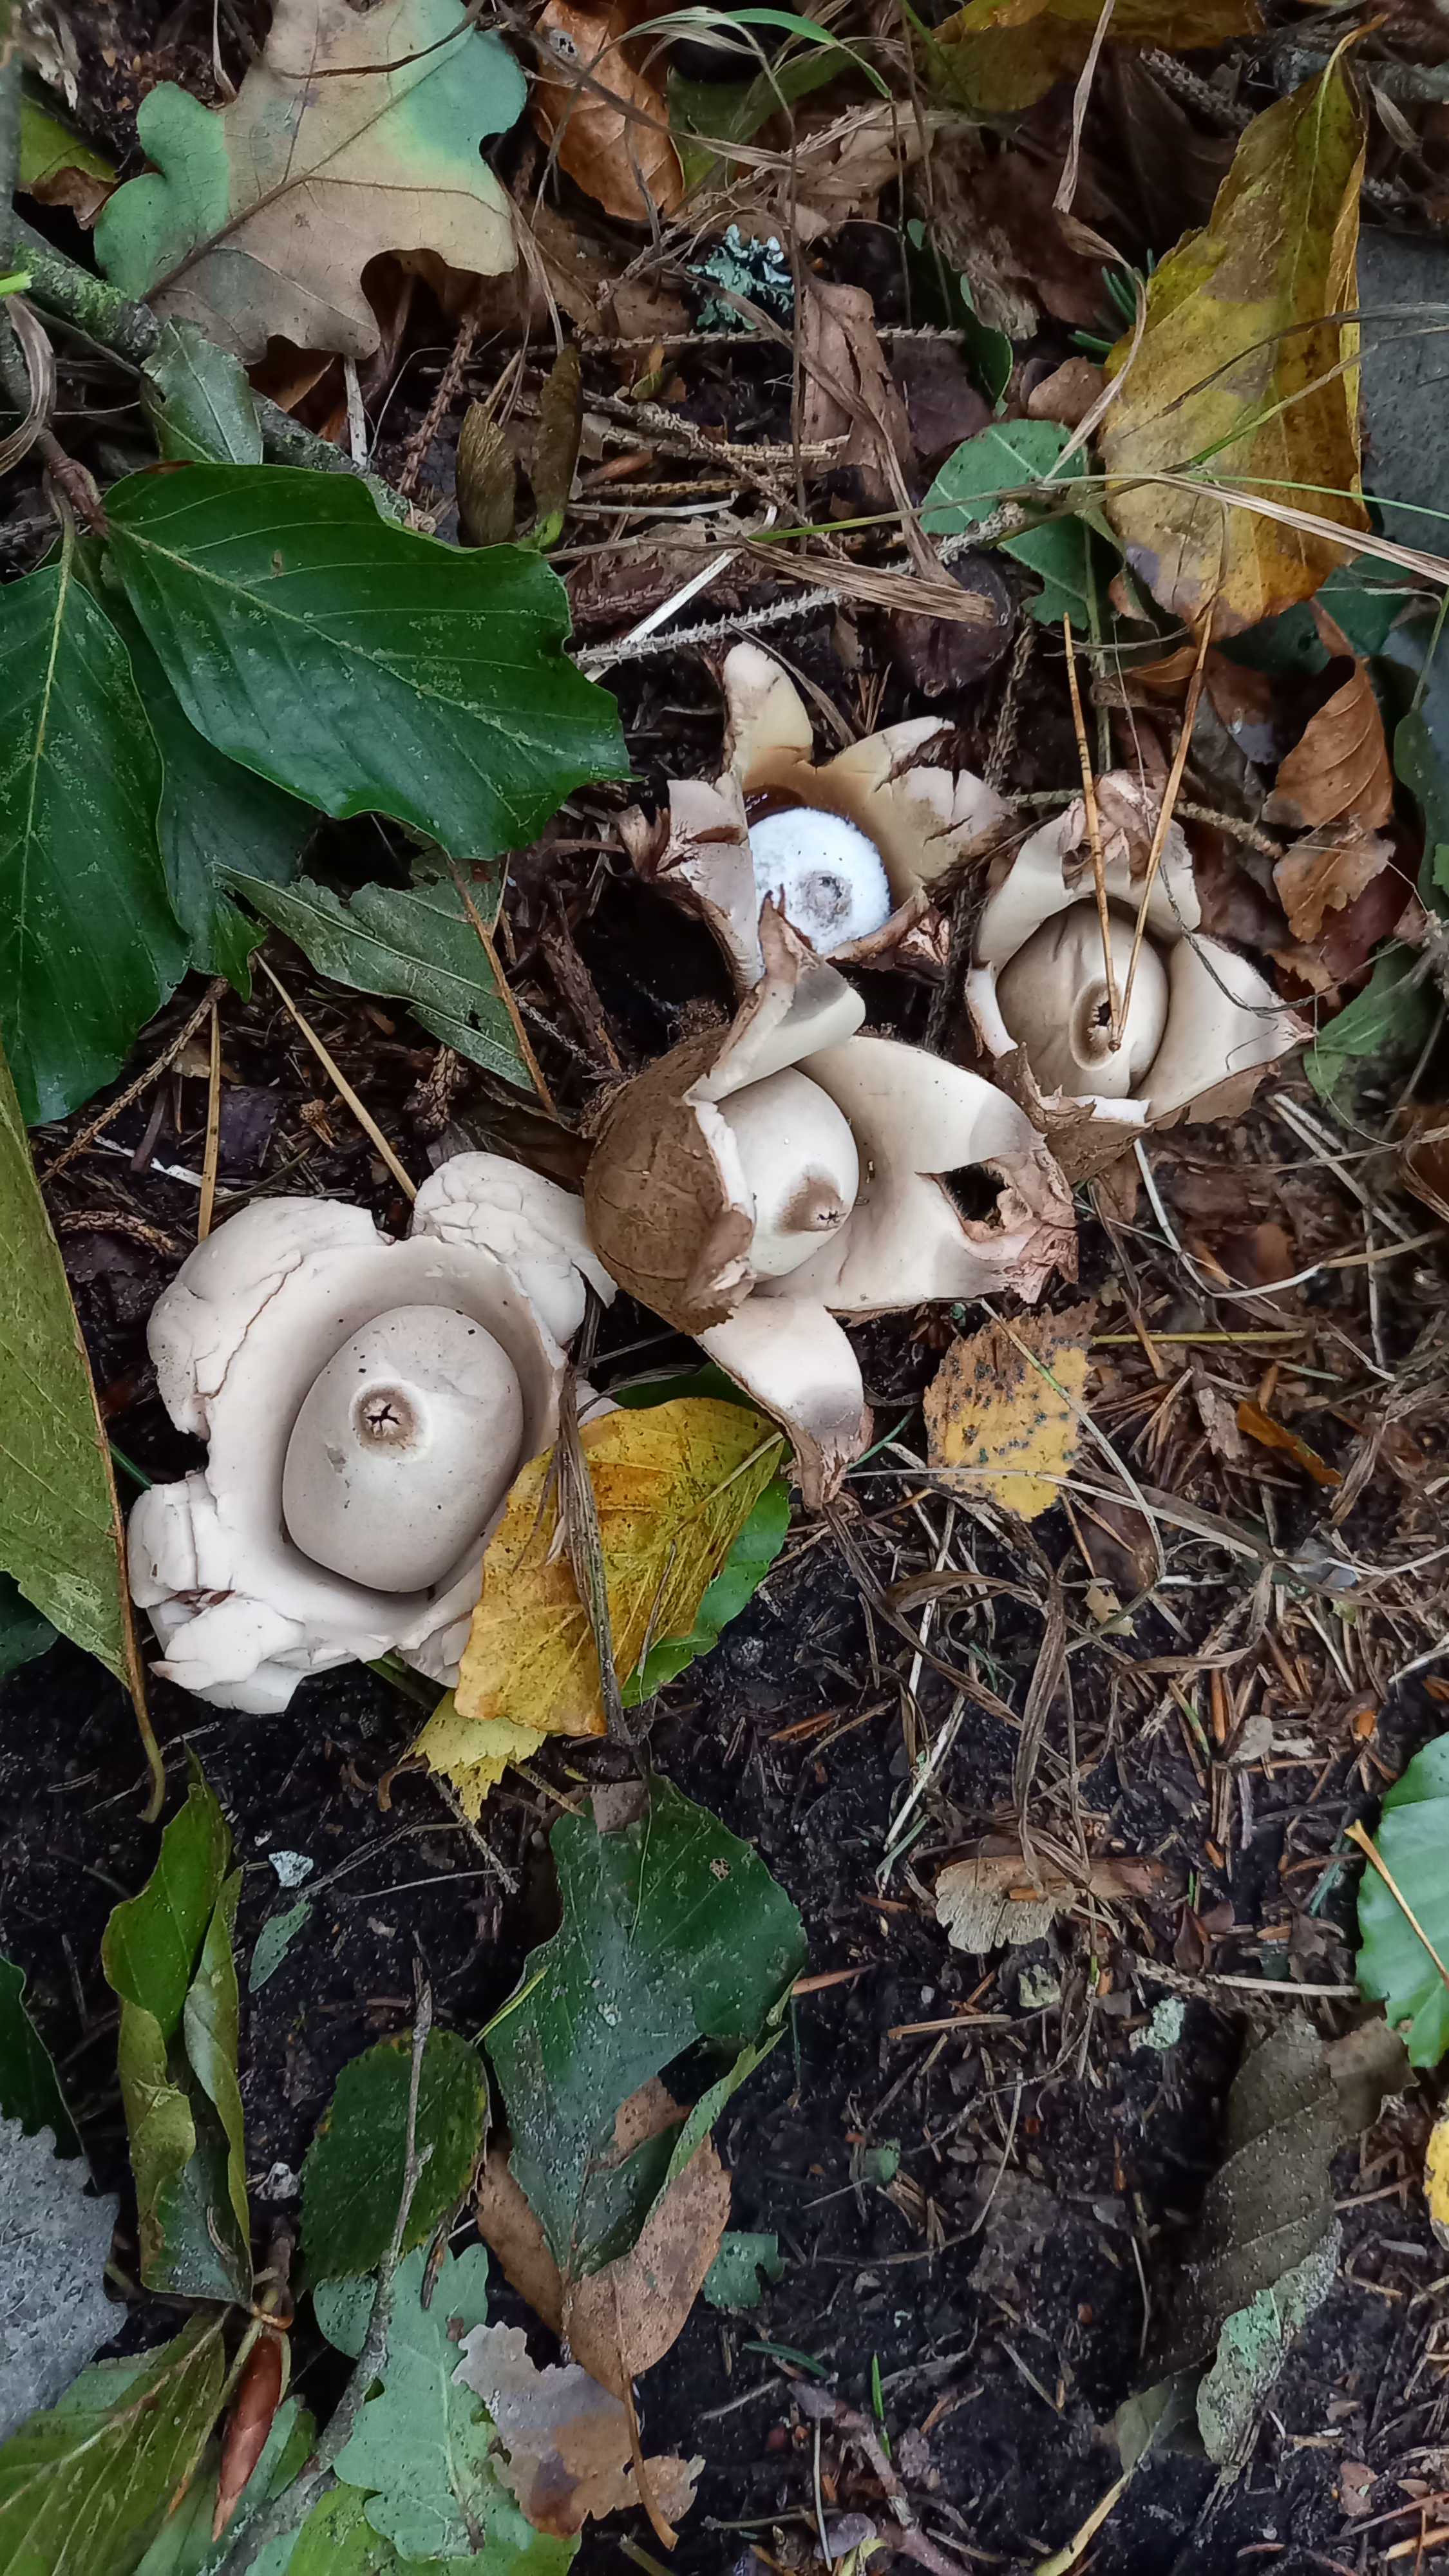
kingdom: Fungi
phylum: Basidiomycota
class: Agaricomycetes
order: Geastrales
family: Geastraceae
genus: Geastrum
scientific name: Geastrum michelianum
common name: kødet stjernebold
